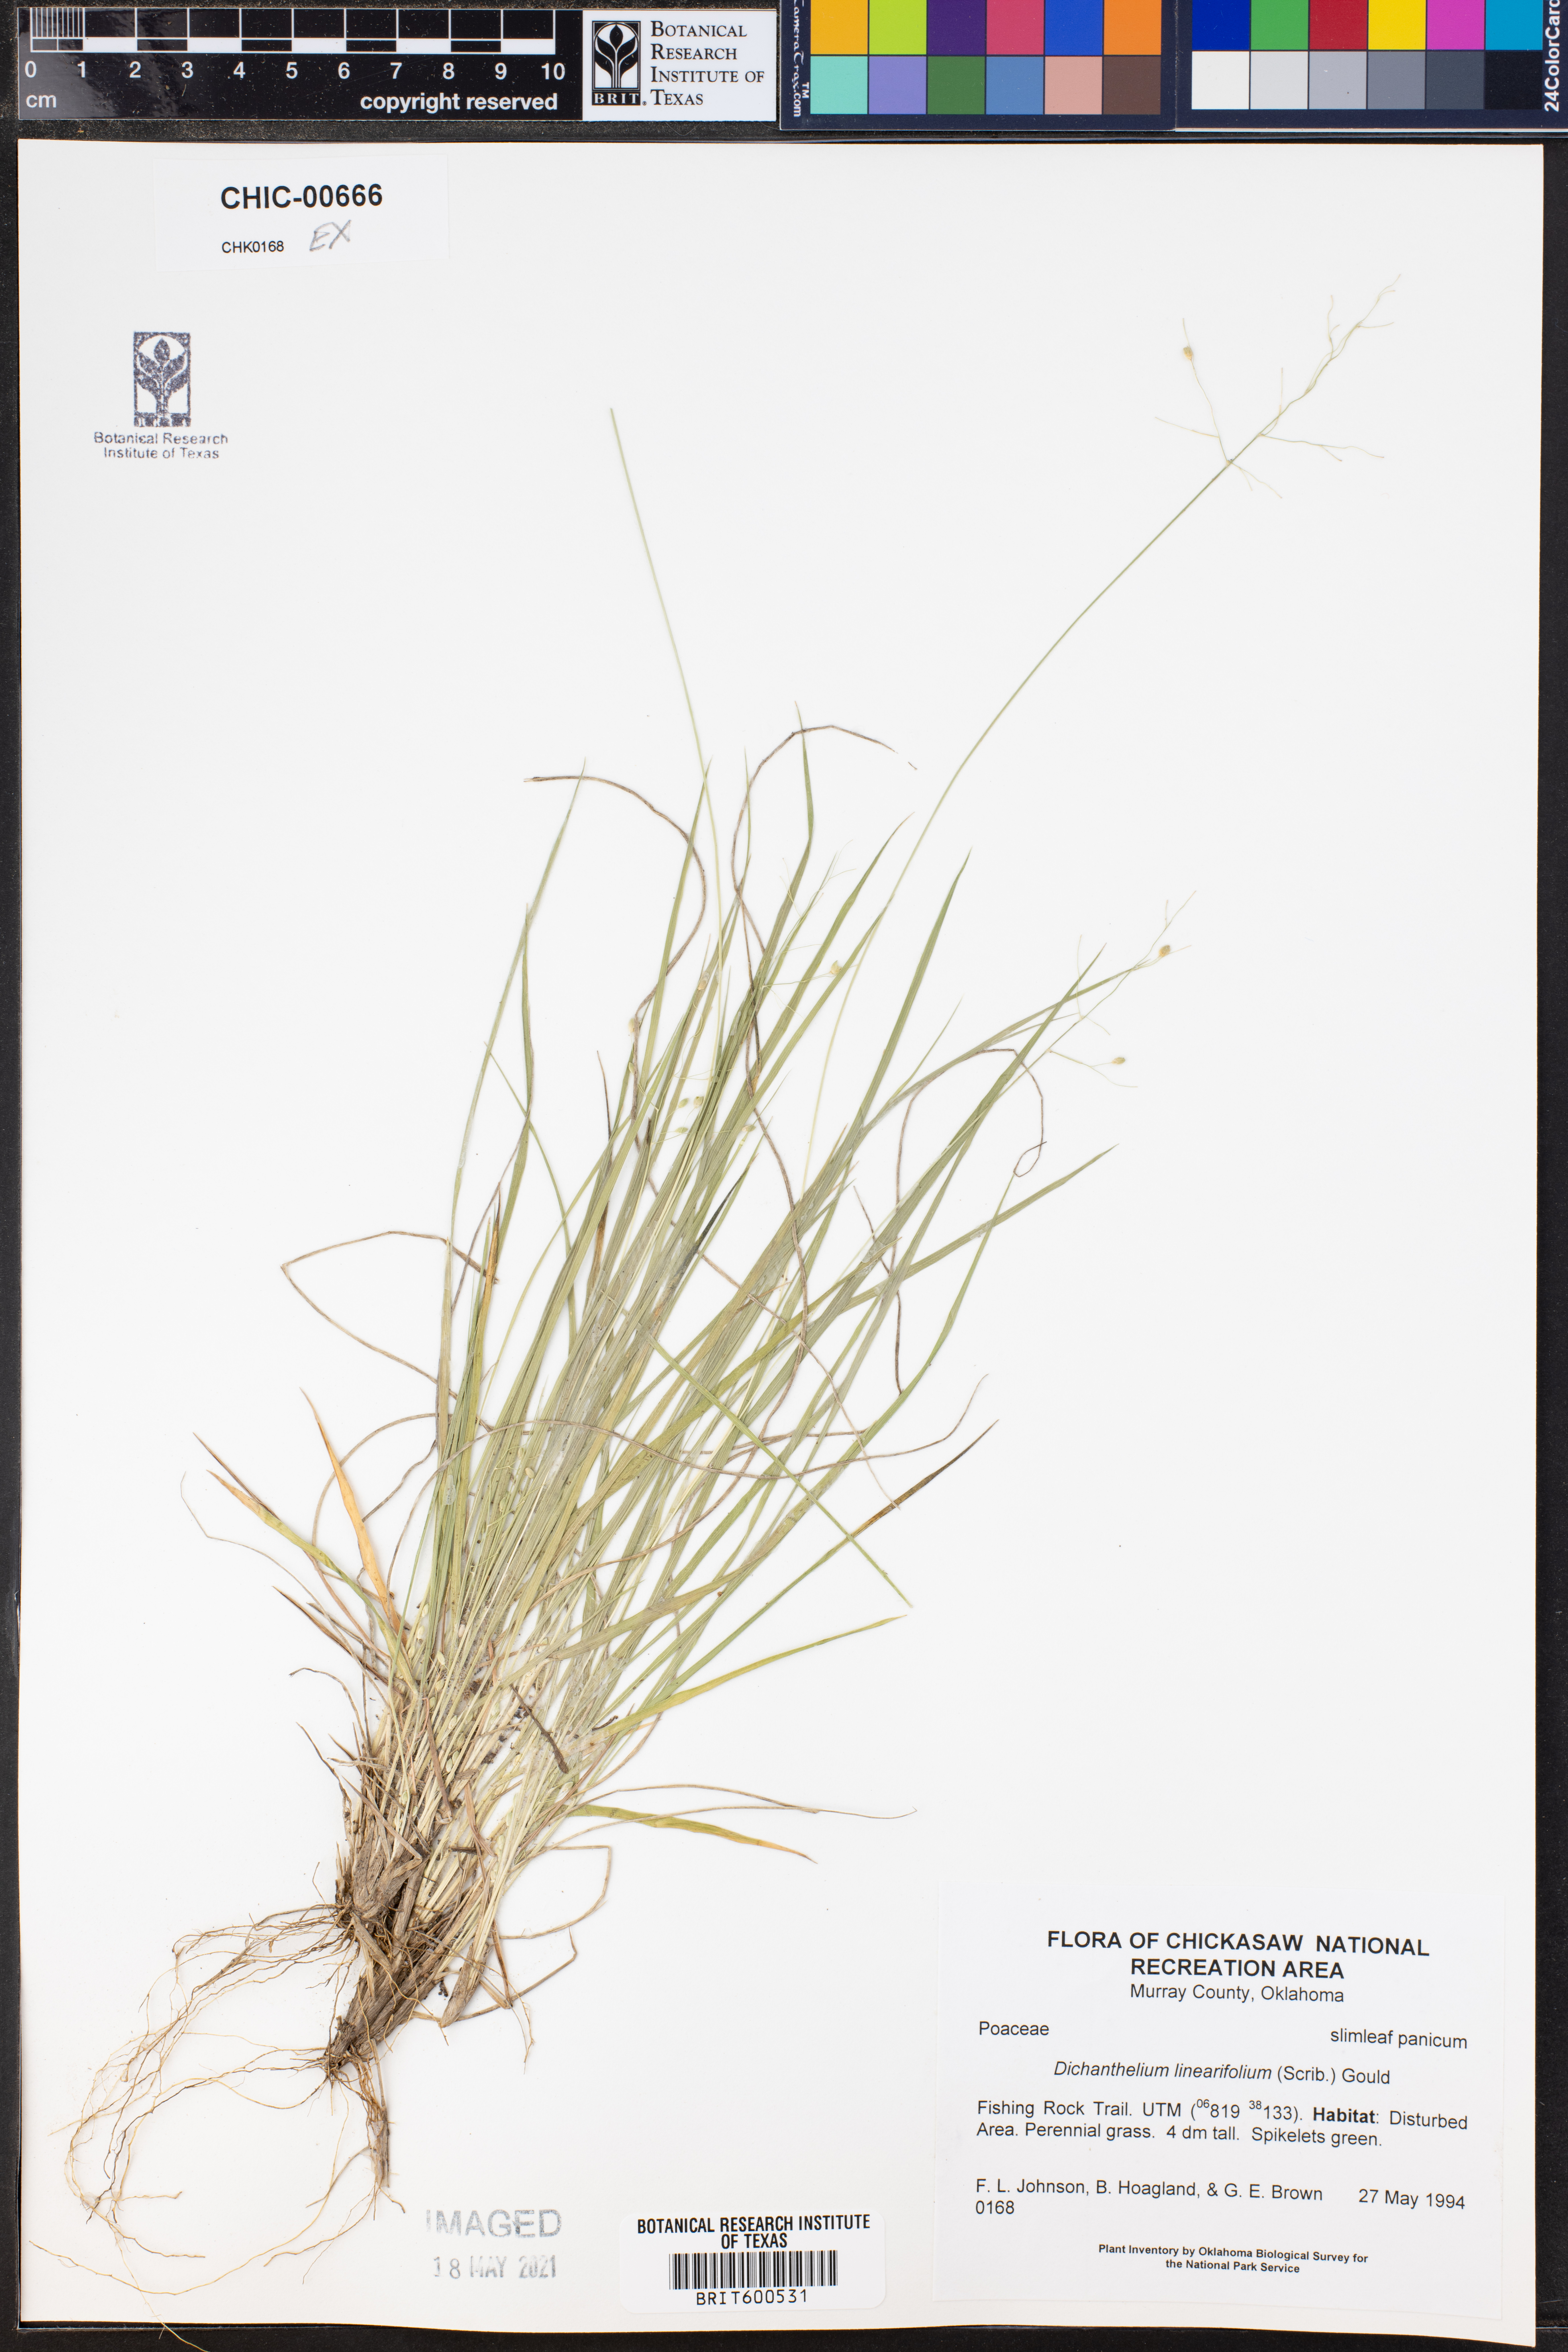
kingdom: Plantae
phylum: Tracheophyta
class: Liliopsida
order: Poales
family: Poaceae
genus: Dichanthelium
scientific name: Dichanthelium linearifolium
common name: Linear-leaved panicgrass
